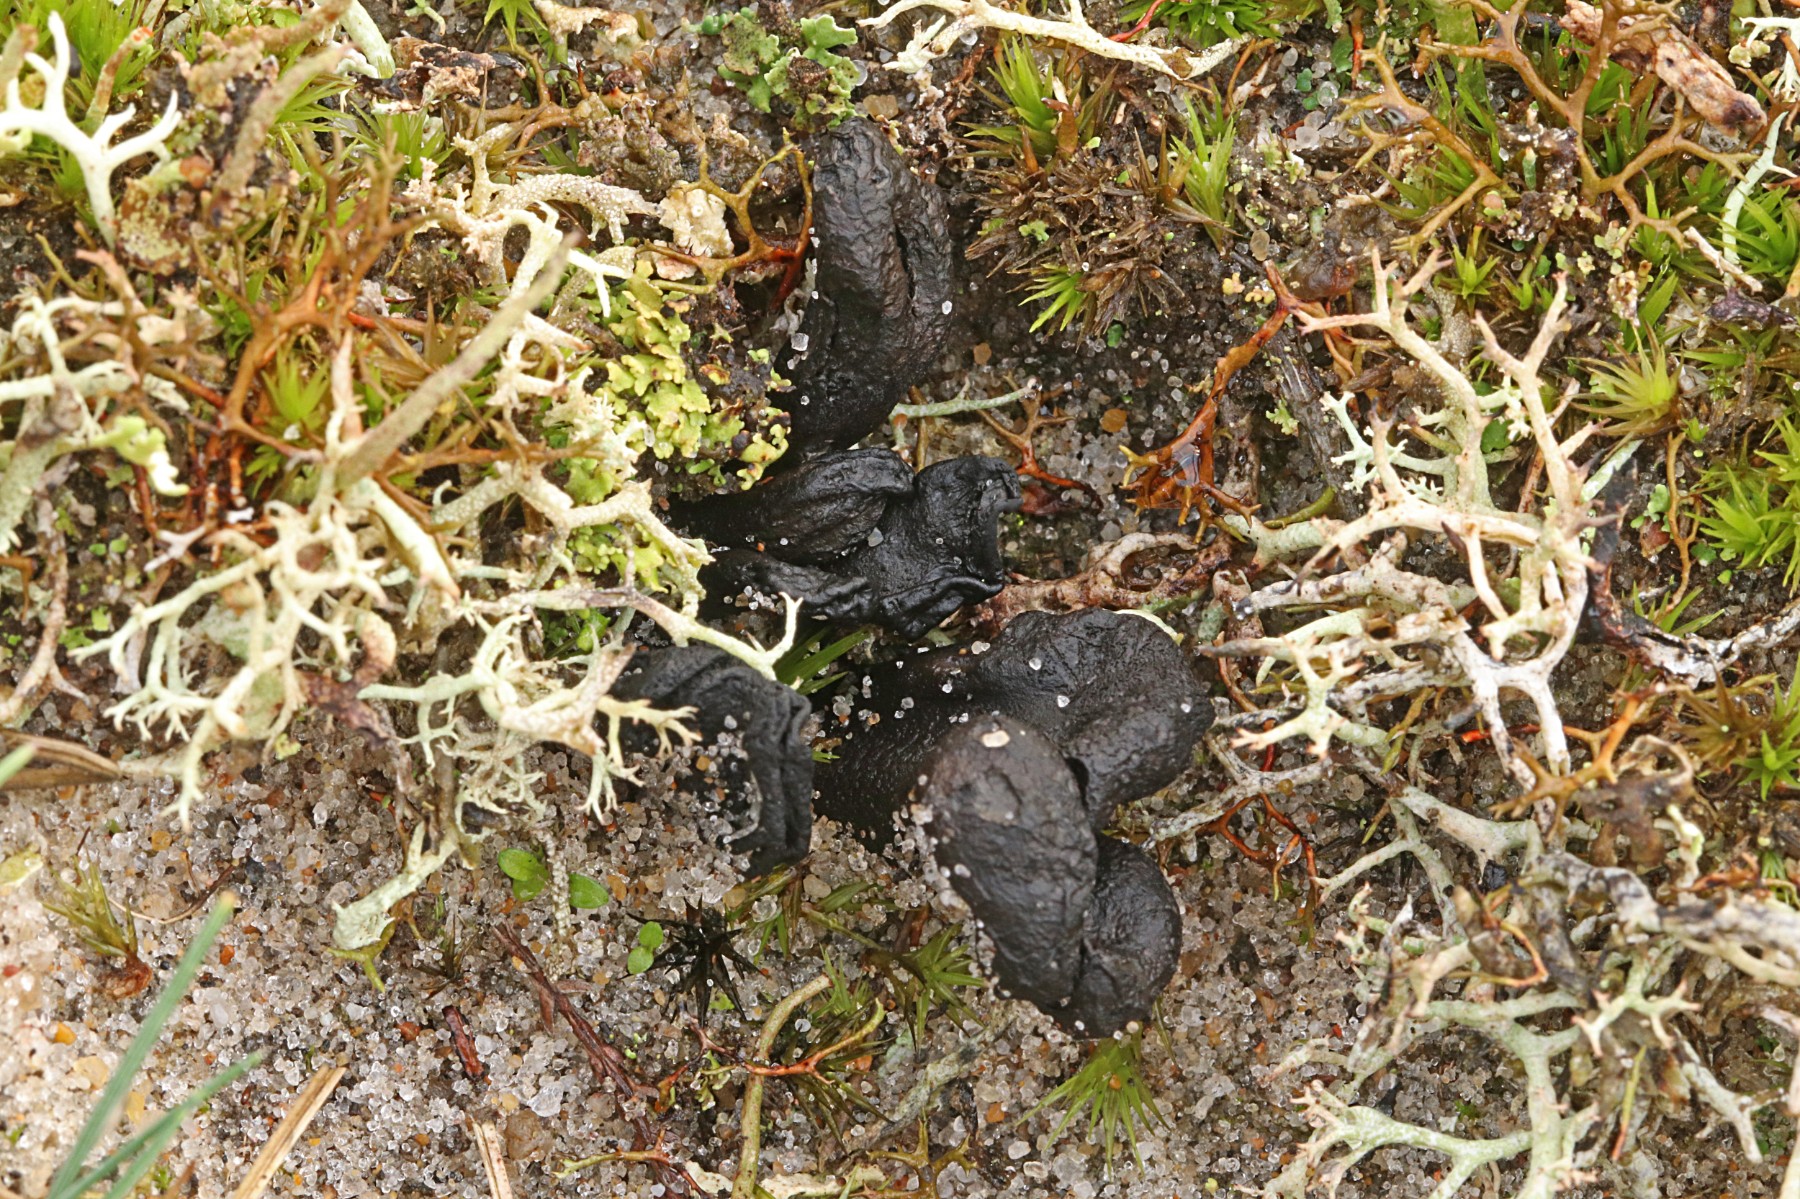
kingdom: Fungi
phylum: Ascomycota
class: Geoglossomycetes
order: Geoglossales
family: Geoglossaceae
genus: Sabuloglossum
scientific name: Sabuloglossum arenarium
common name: klit-jordtunge
